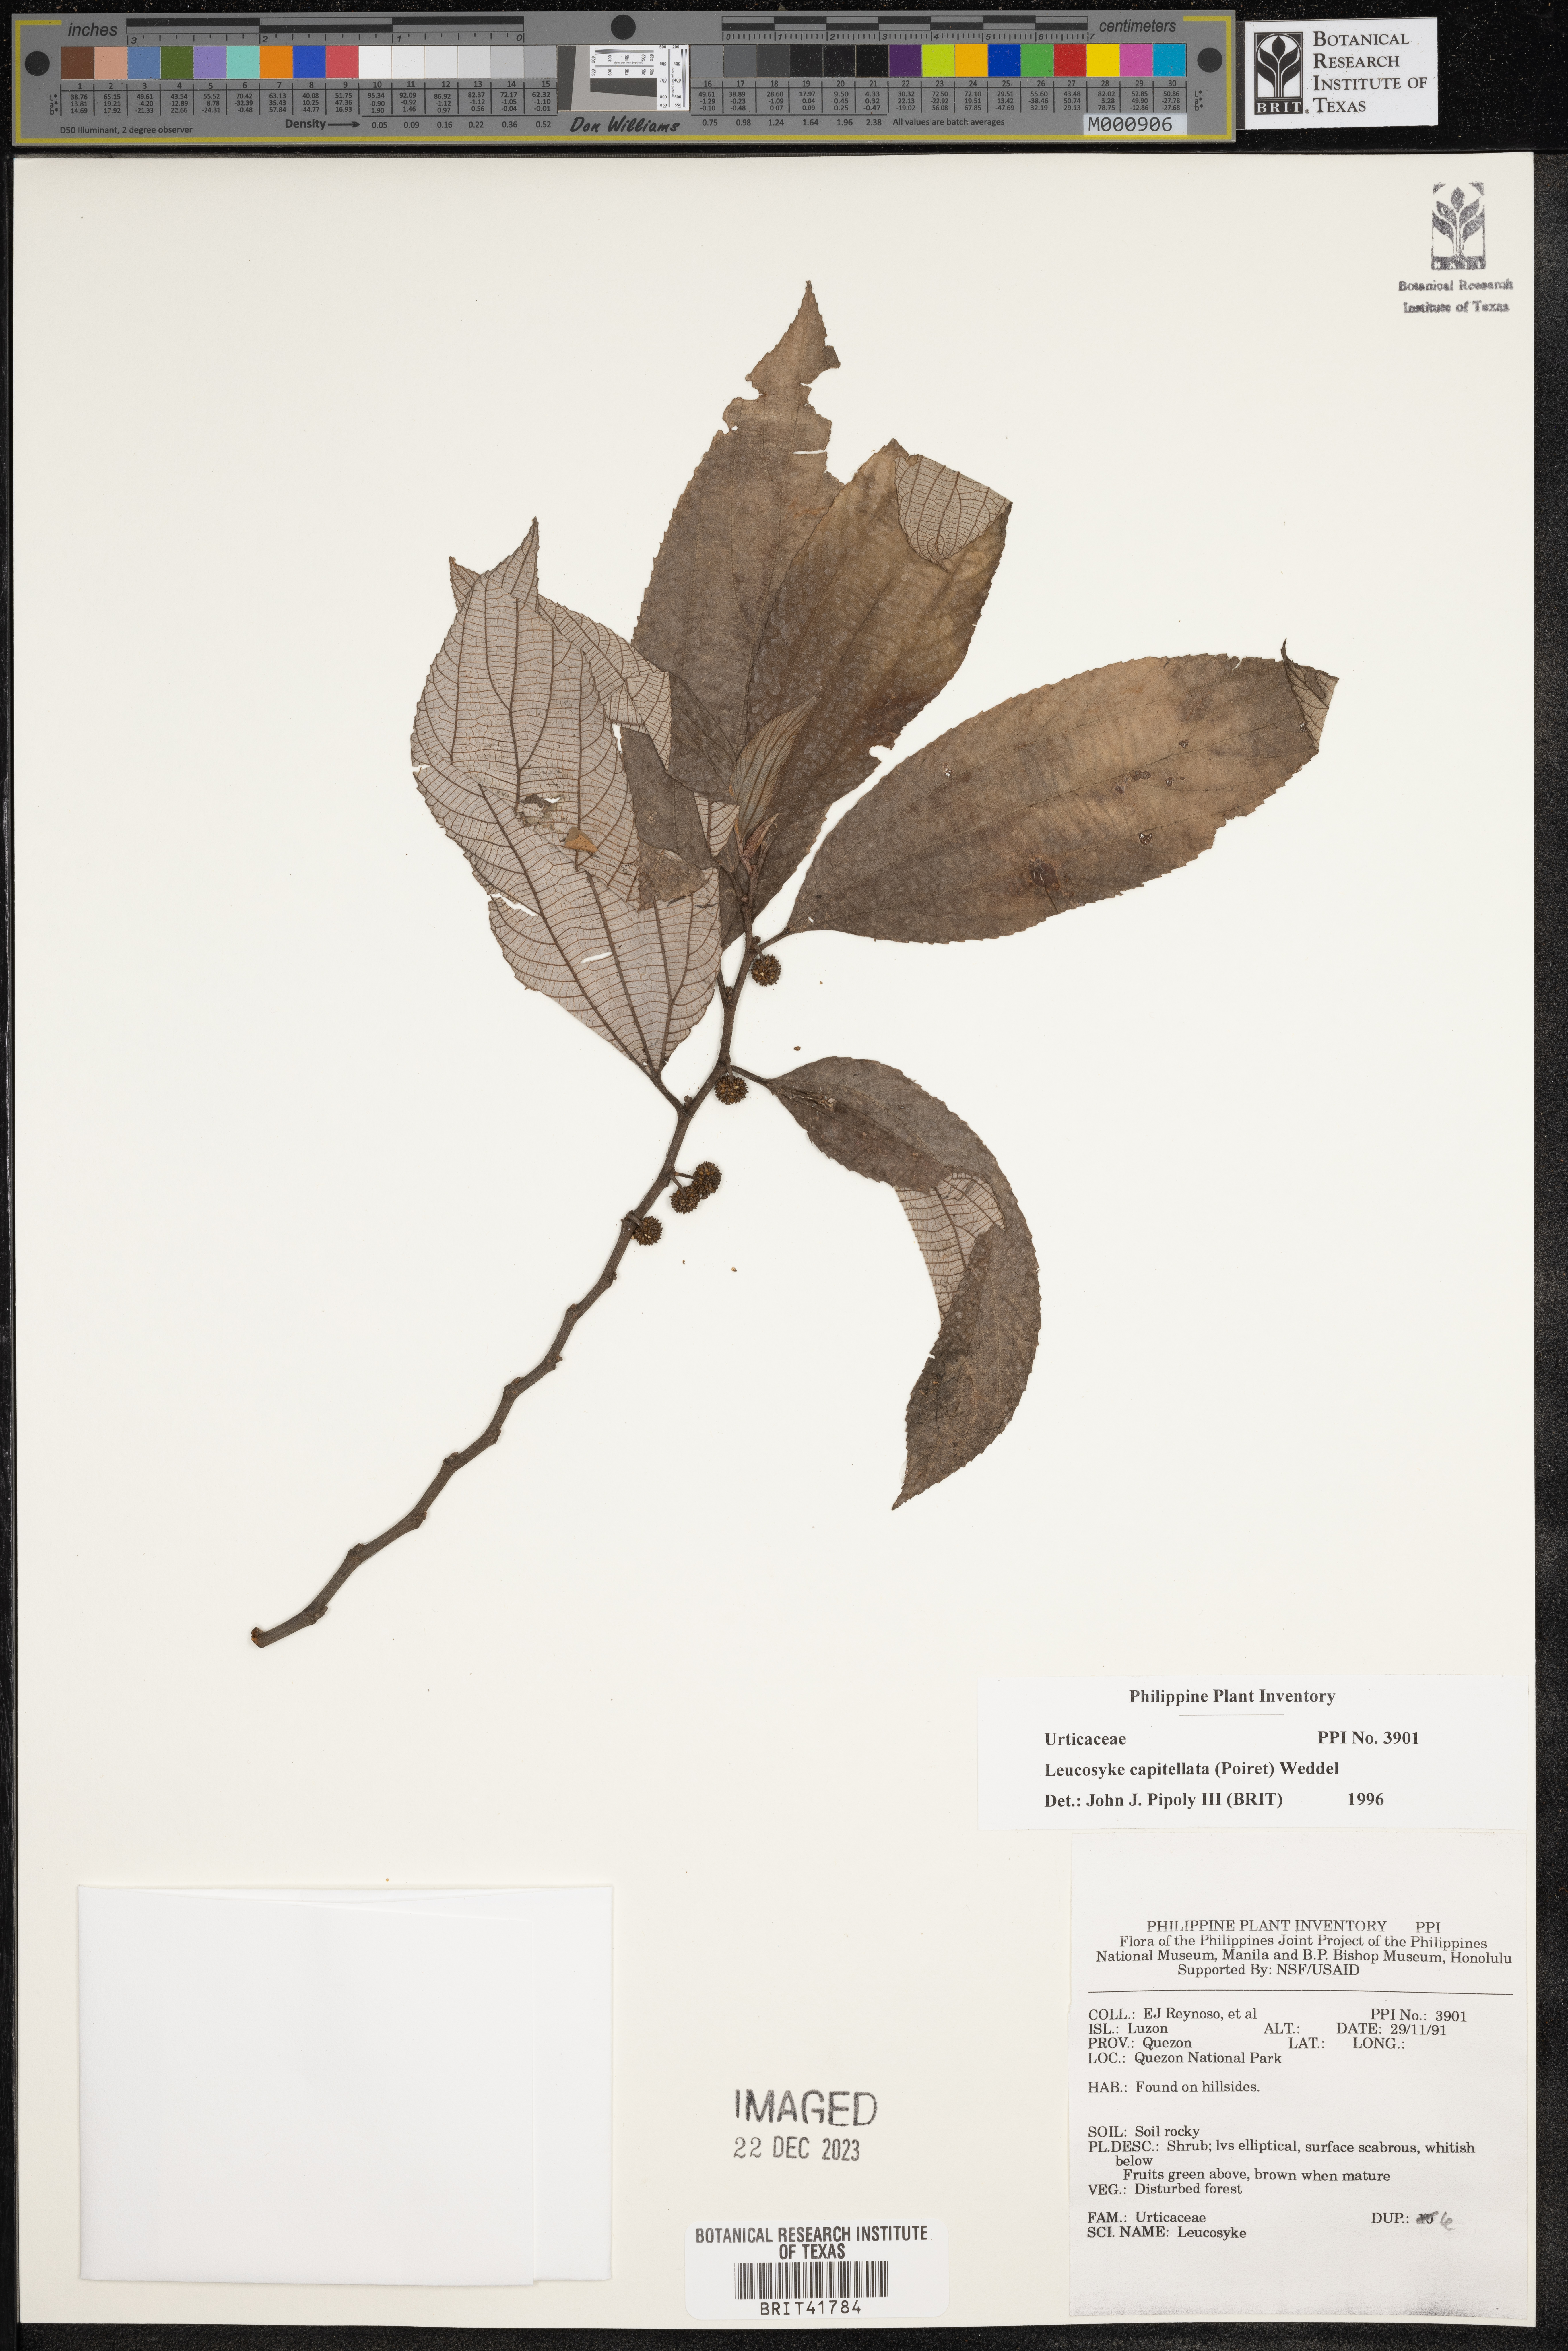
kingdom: Plantae
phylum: Tracheophyta
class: Magnoliopsida
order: Rosales
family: Urticaceae
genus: Leucosyke
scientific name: Leucosyke capitellata
